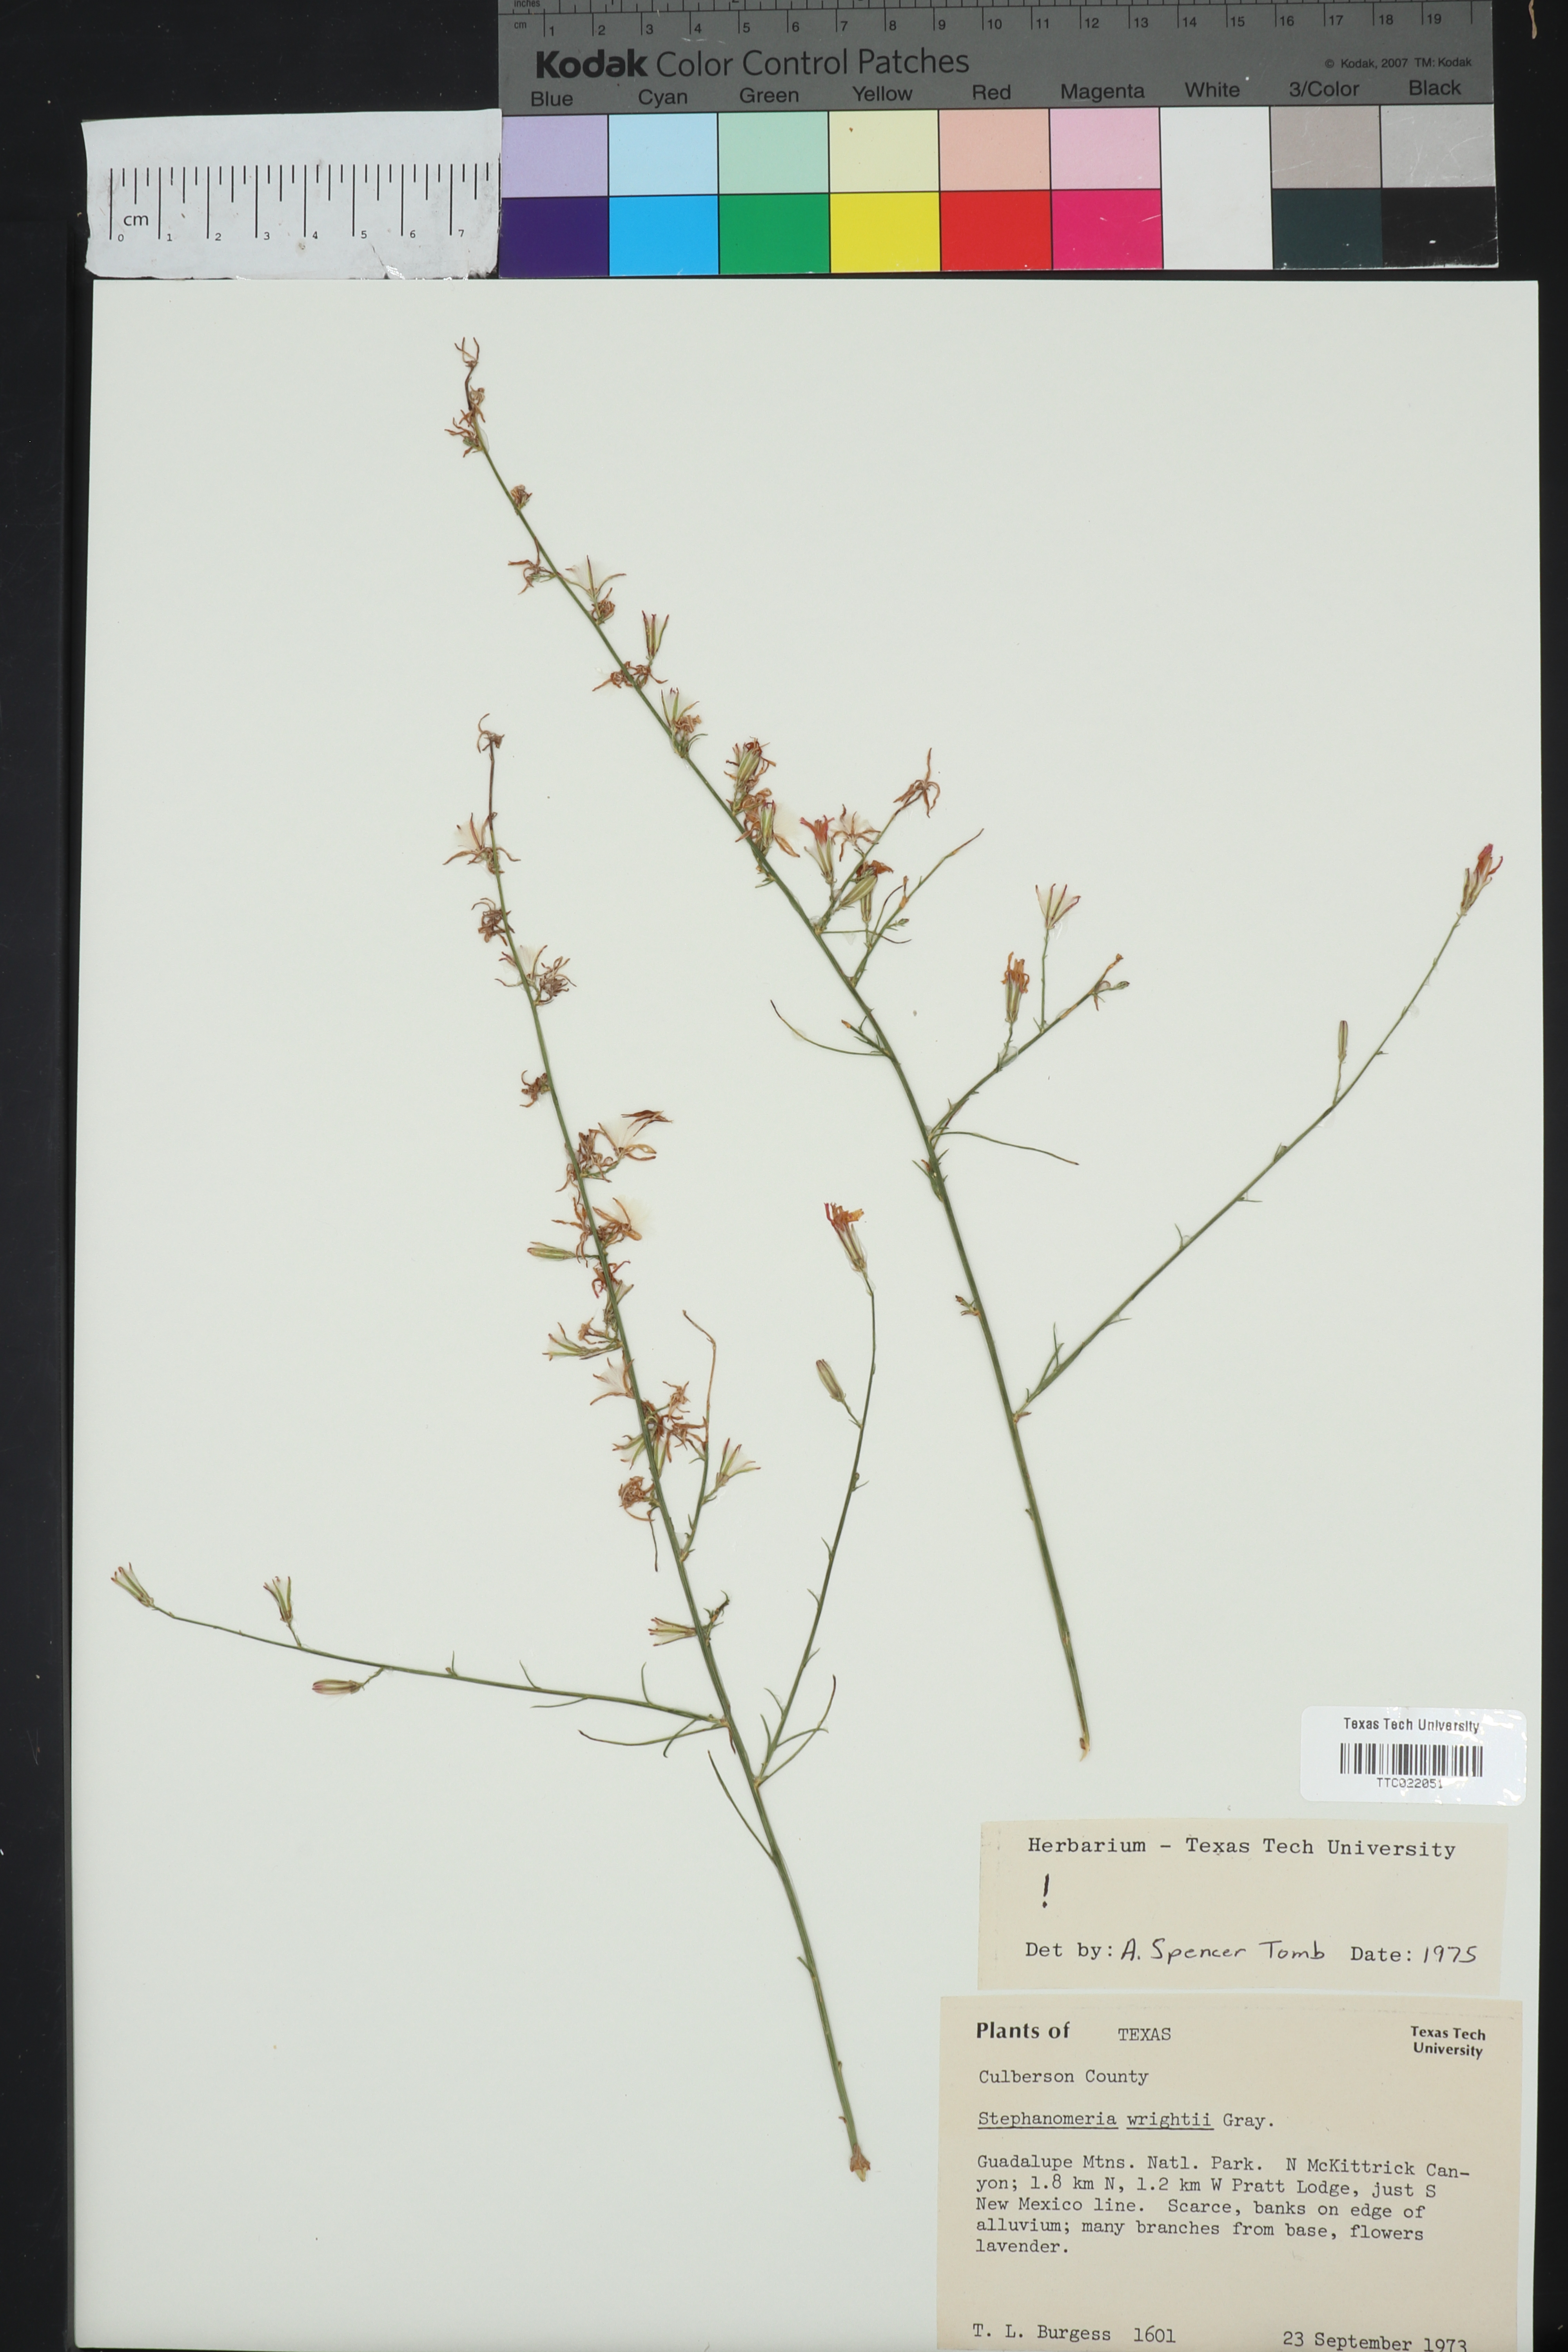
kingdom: Plantae
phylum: Tracheophyta
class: Magnoliopsida
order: Asterales
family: Asteraceae
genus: Stephanomeria
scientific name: Stephanomeria tenuifolia
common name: Slender wirelettuce
